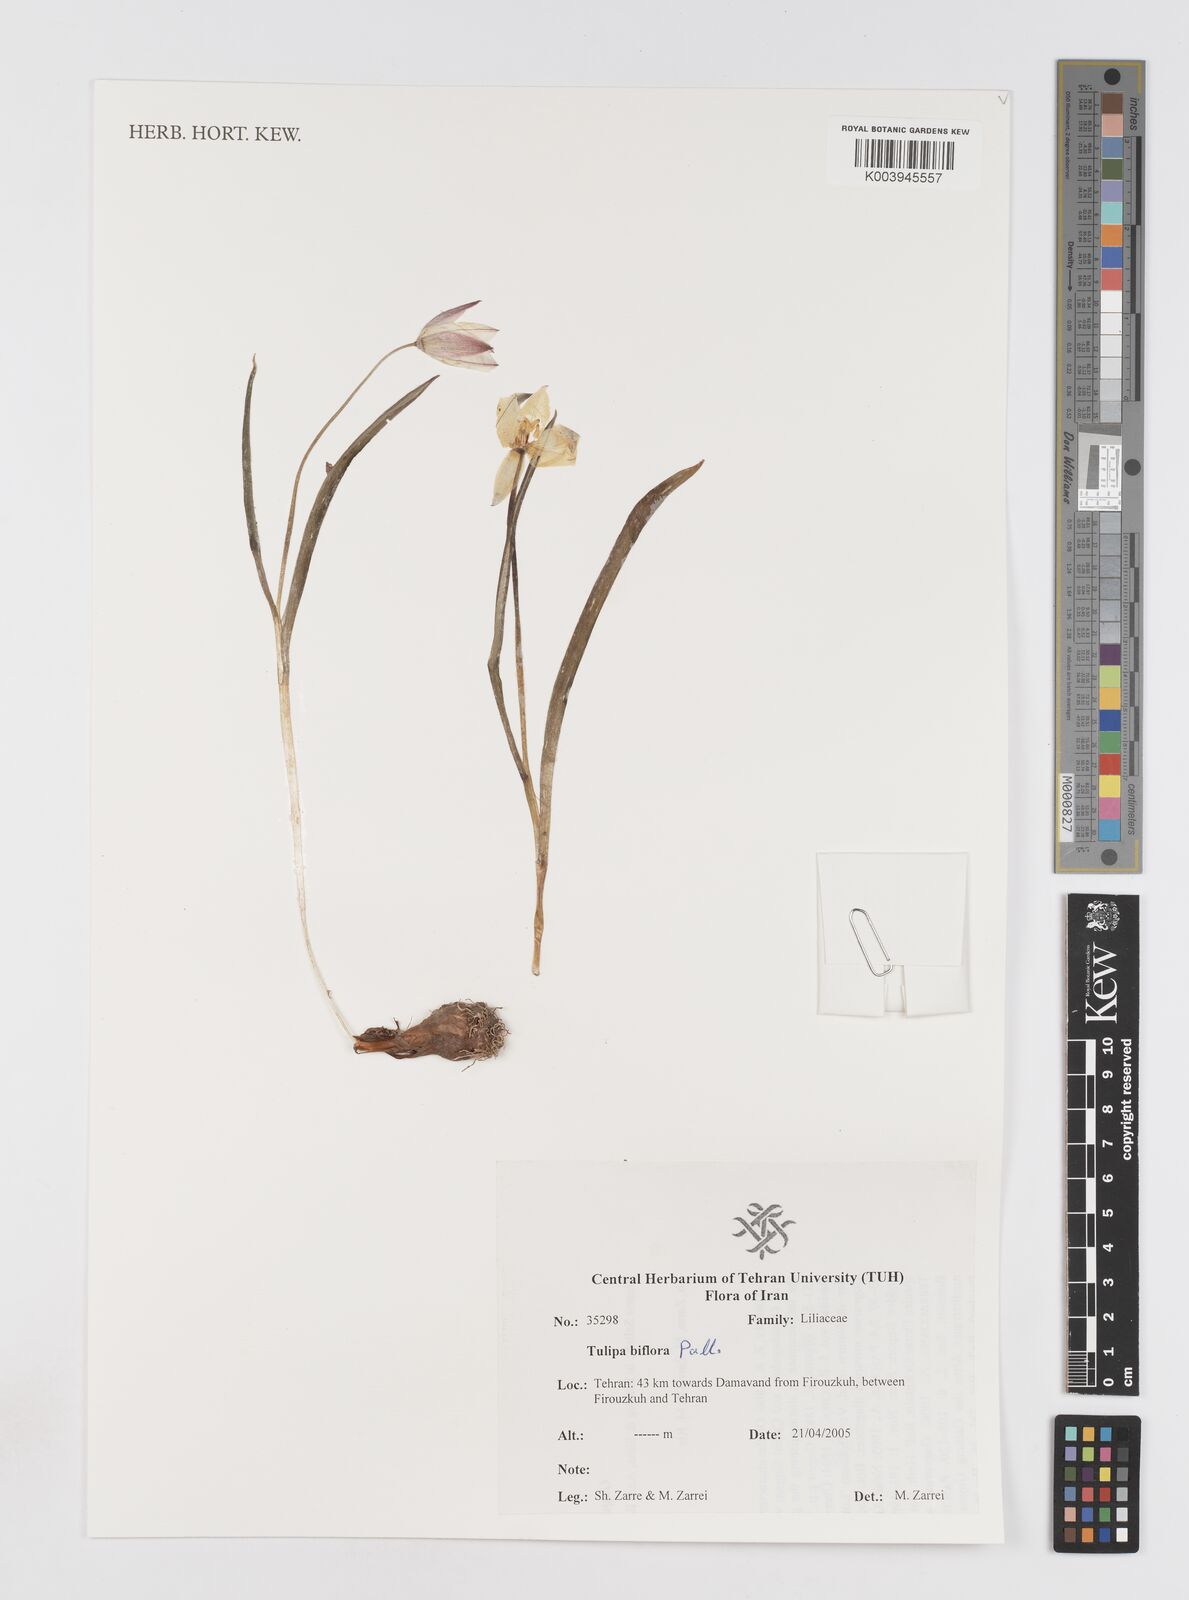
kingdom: Plantae
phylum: Tracheophyta
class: Liliopsida
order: Liliales
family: Liliaceae
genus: Tulipa
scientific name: Tulipa biflora
